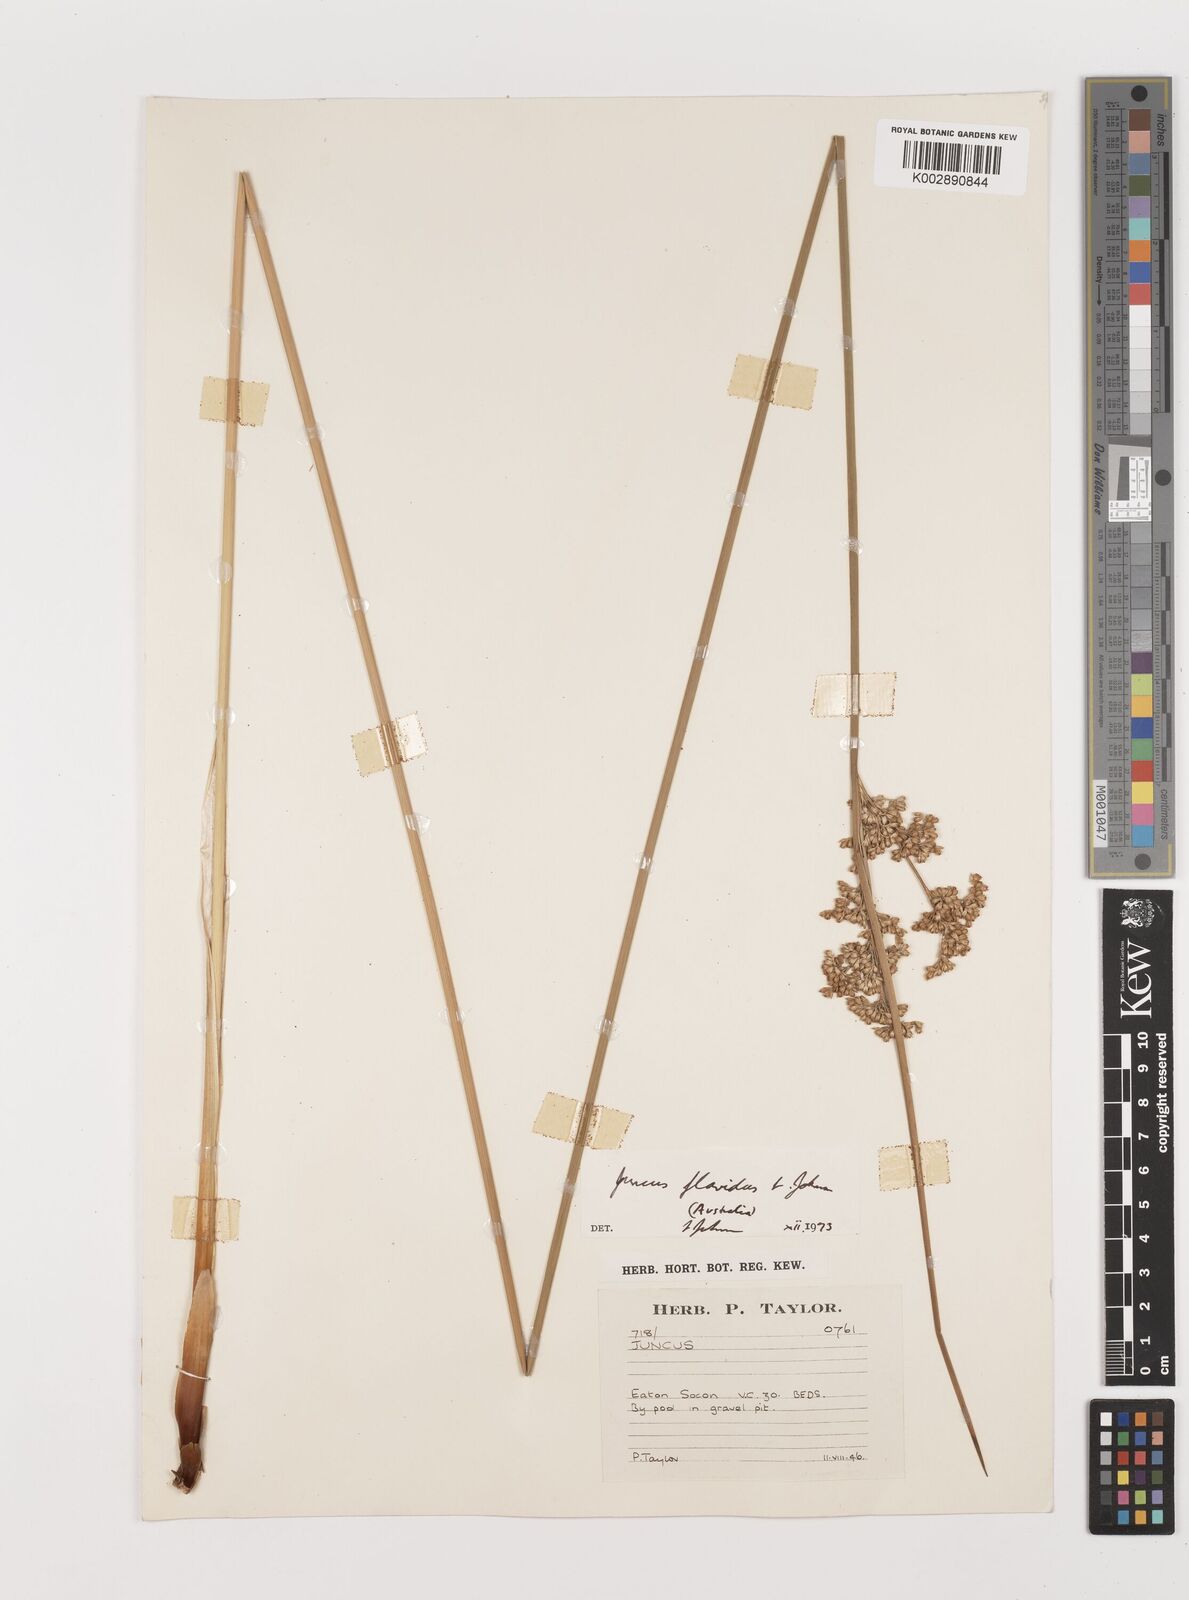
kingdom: Plantae
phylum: Tracheophyta
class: Liliopsida
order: Poales
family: Juncaceae
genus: Juncus
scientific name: Juncus flavidus
